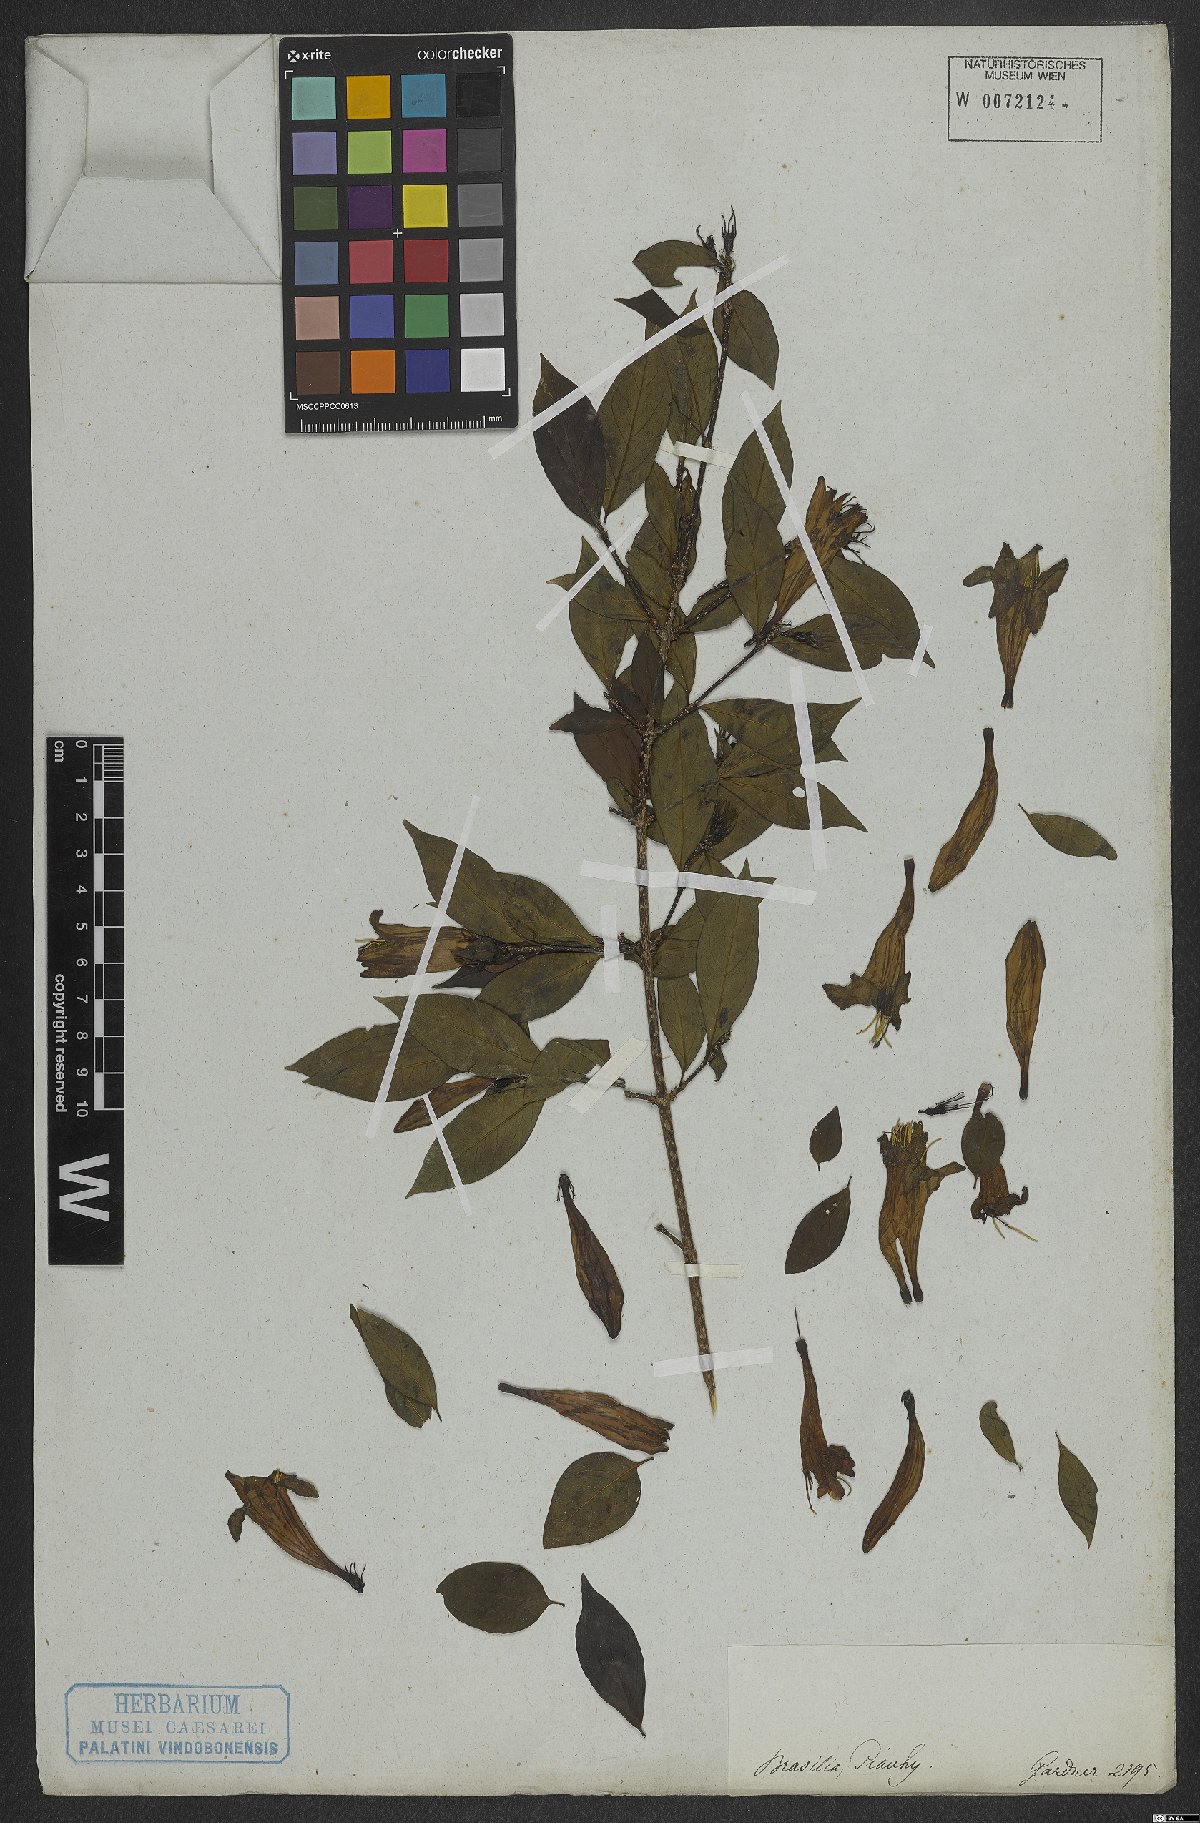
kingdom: Plantae
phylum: Tracheophyta
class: Magnoliopsida
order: Gentianales
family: Rubiaceae
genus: Coutarea
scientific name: Coutarea
